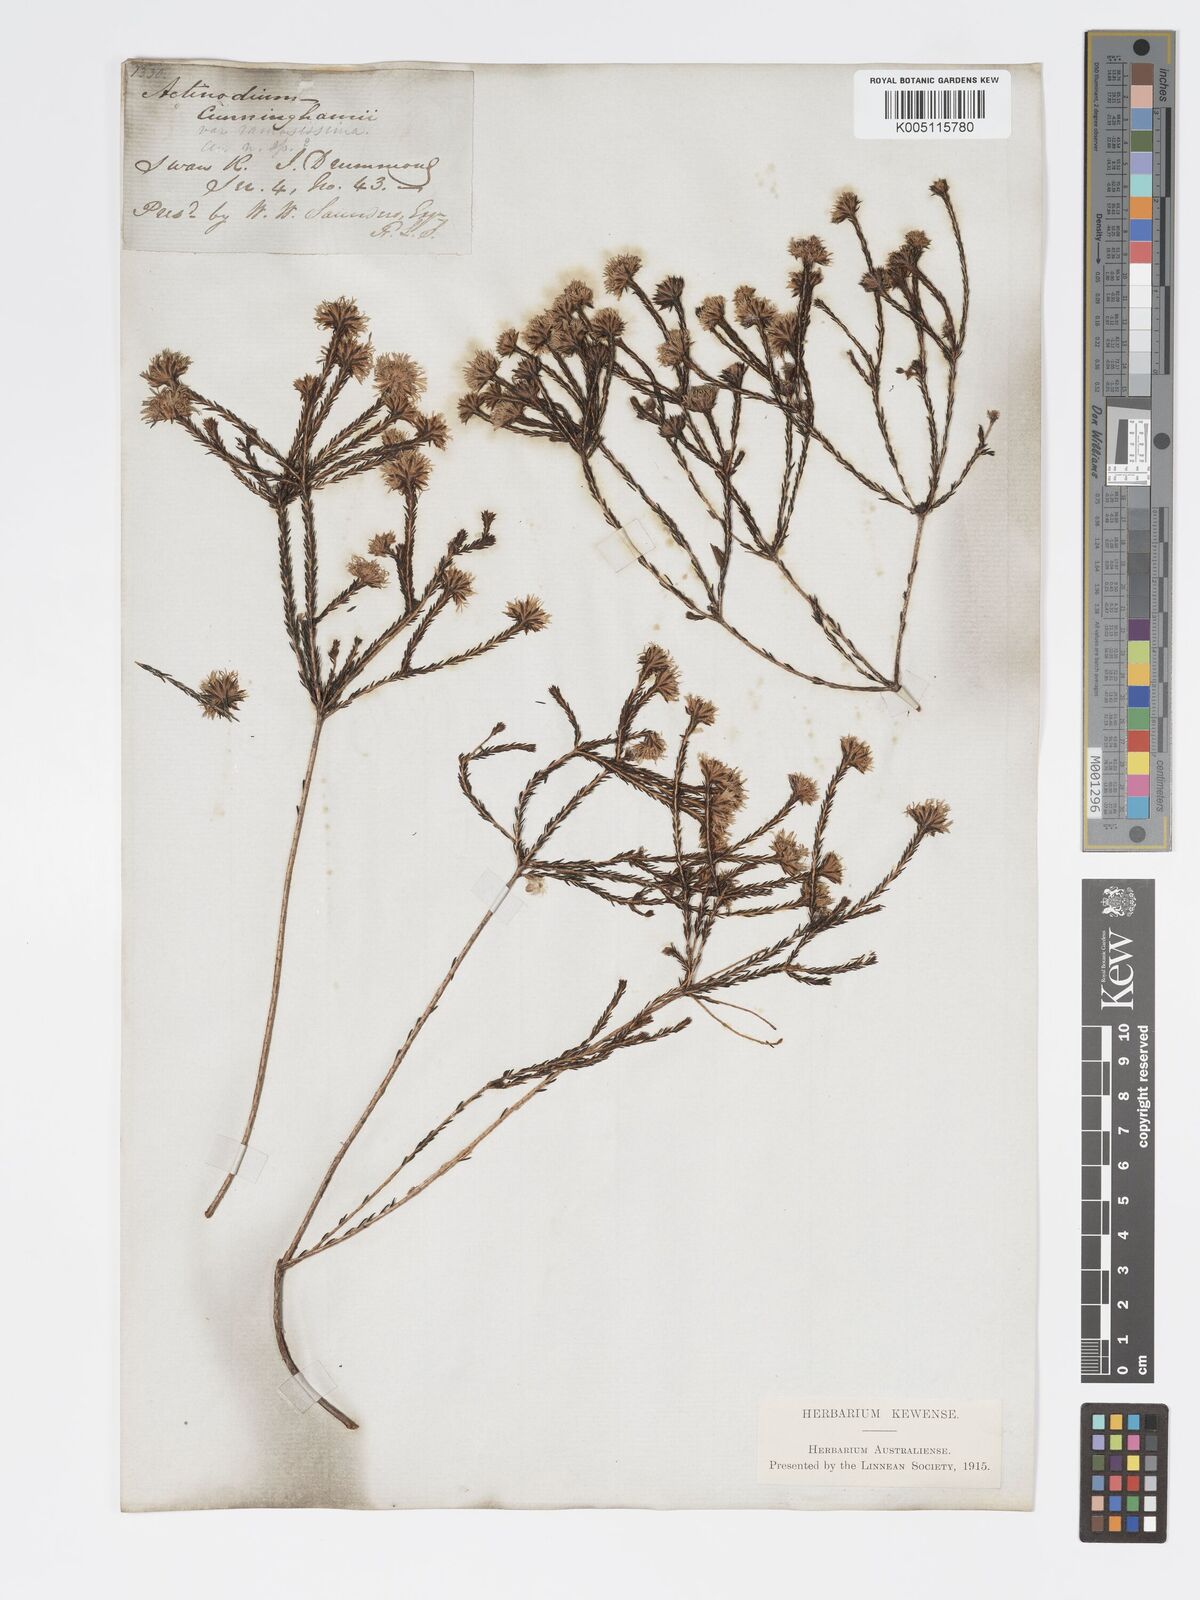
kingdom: Plantae
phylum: Tracheophyta
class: Magnoliopsida
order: Myrtales
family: Myrtaceae
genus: Actinodium
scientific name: Actinodium cunninghamii
